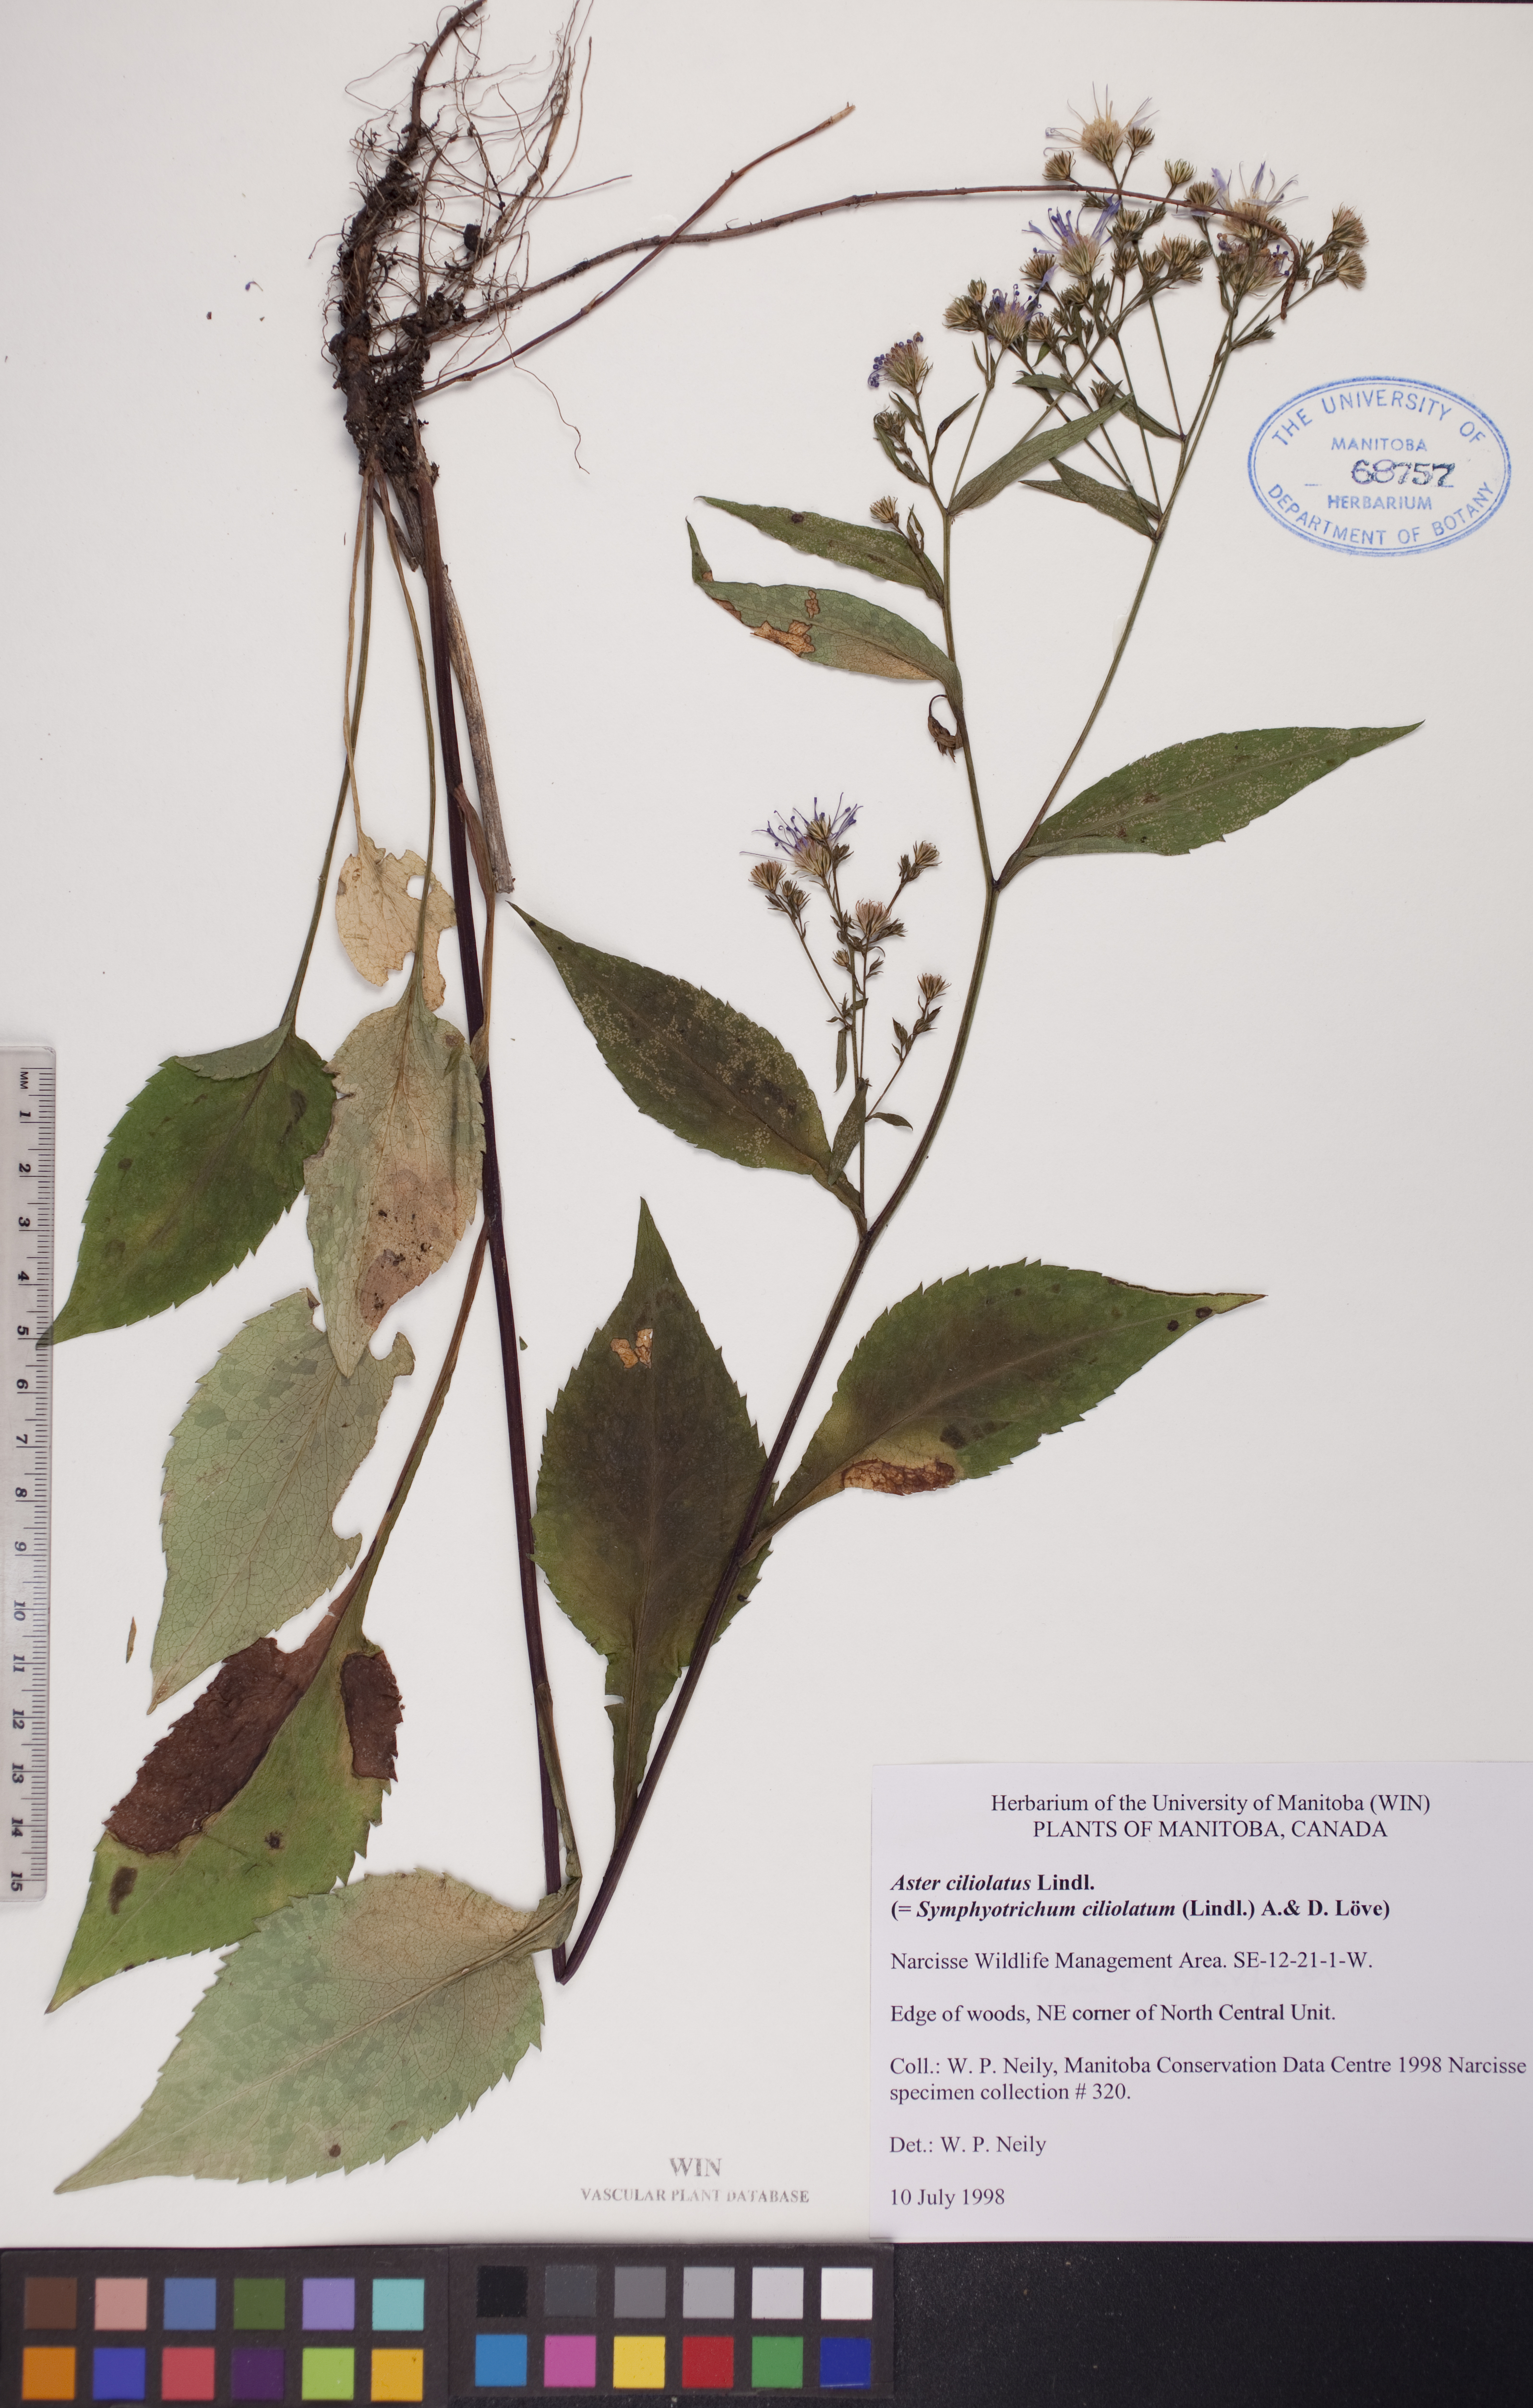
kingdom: Plantae
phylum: Tracheophyta
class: Magnoliopsida
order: Asterales
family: Asteraceae
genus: Symphyotrichum
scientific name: Symphyotrichum ciliolatum
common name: Fringed blue aster
